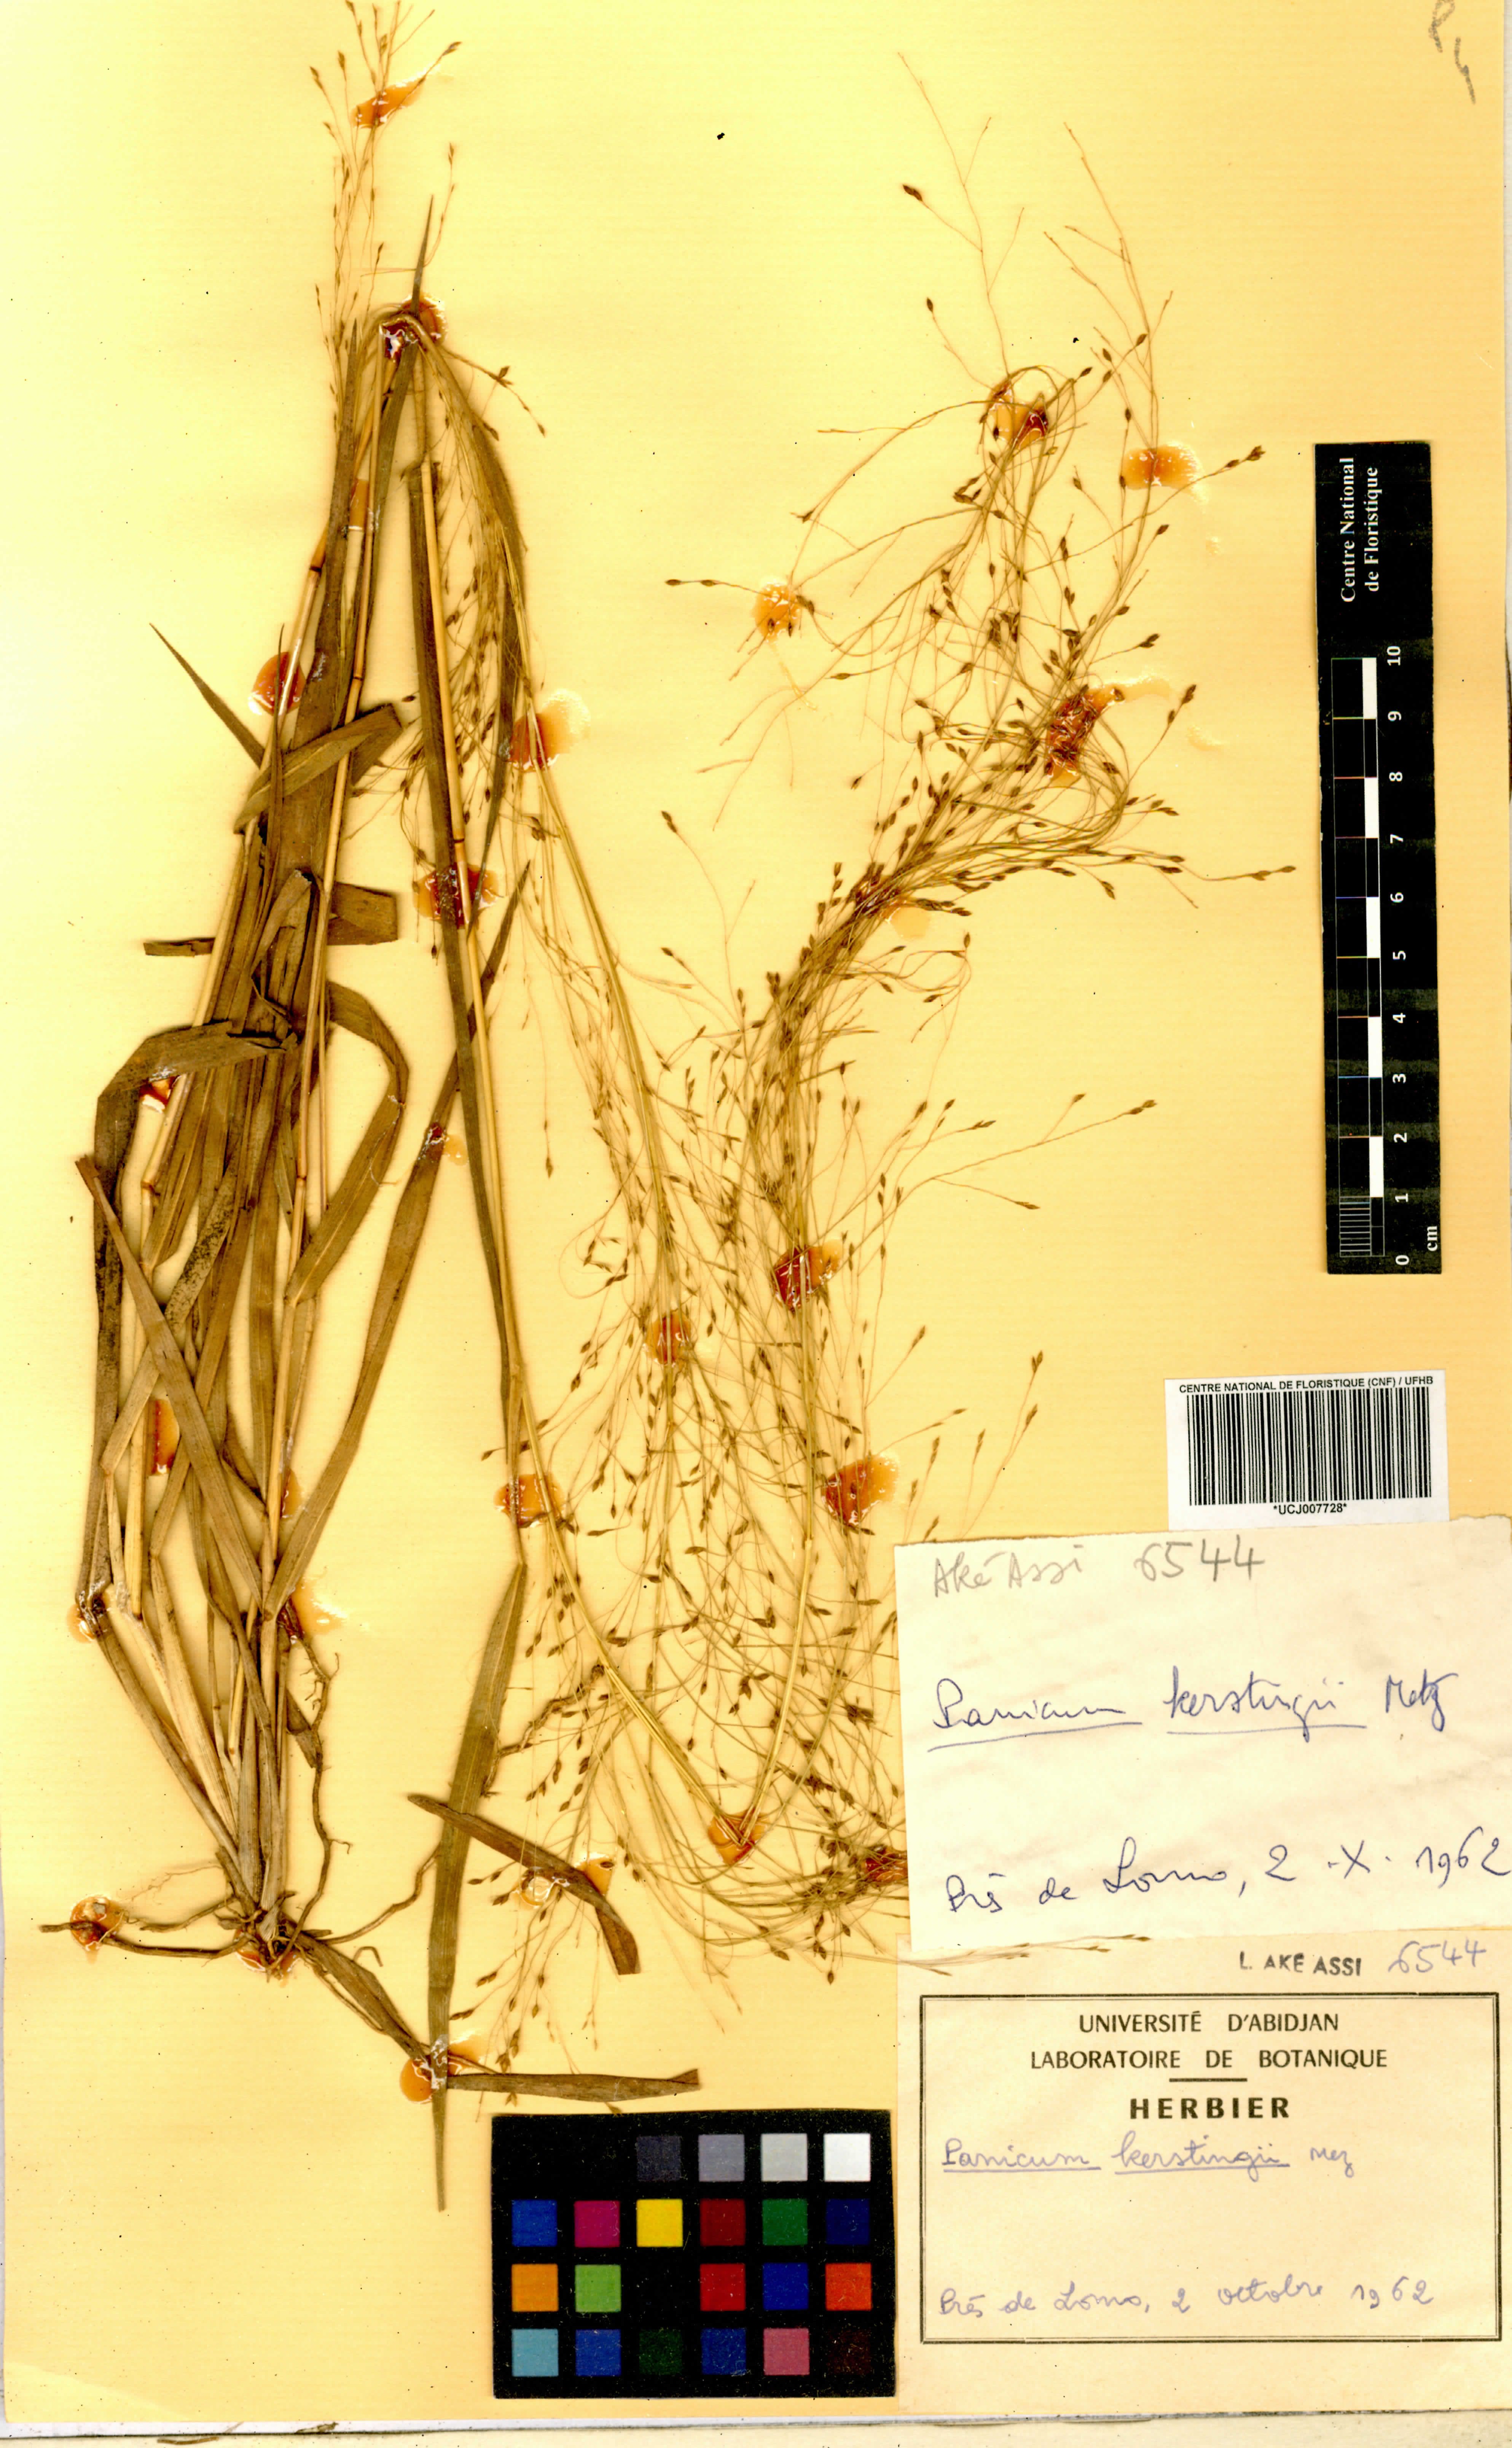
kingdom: Plantae
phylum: Tracheophyta
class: Liliopsida
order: Poales
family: Poaceae
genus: Panicum
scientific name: Panicum pansum
